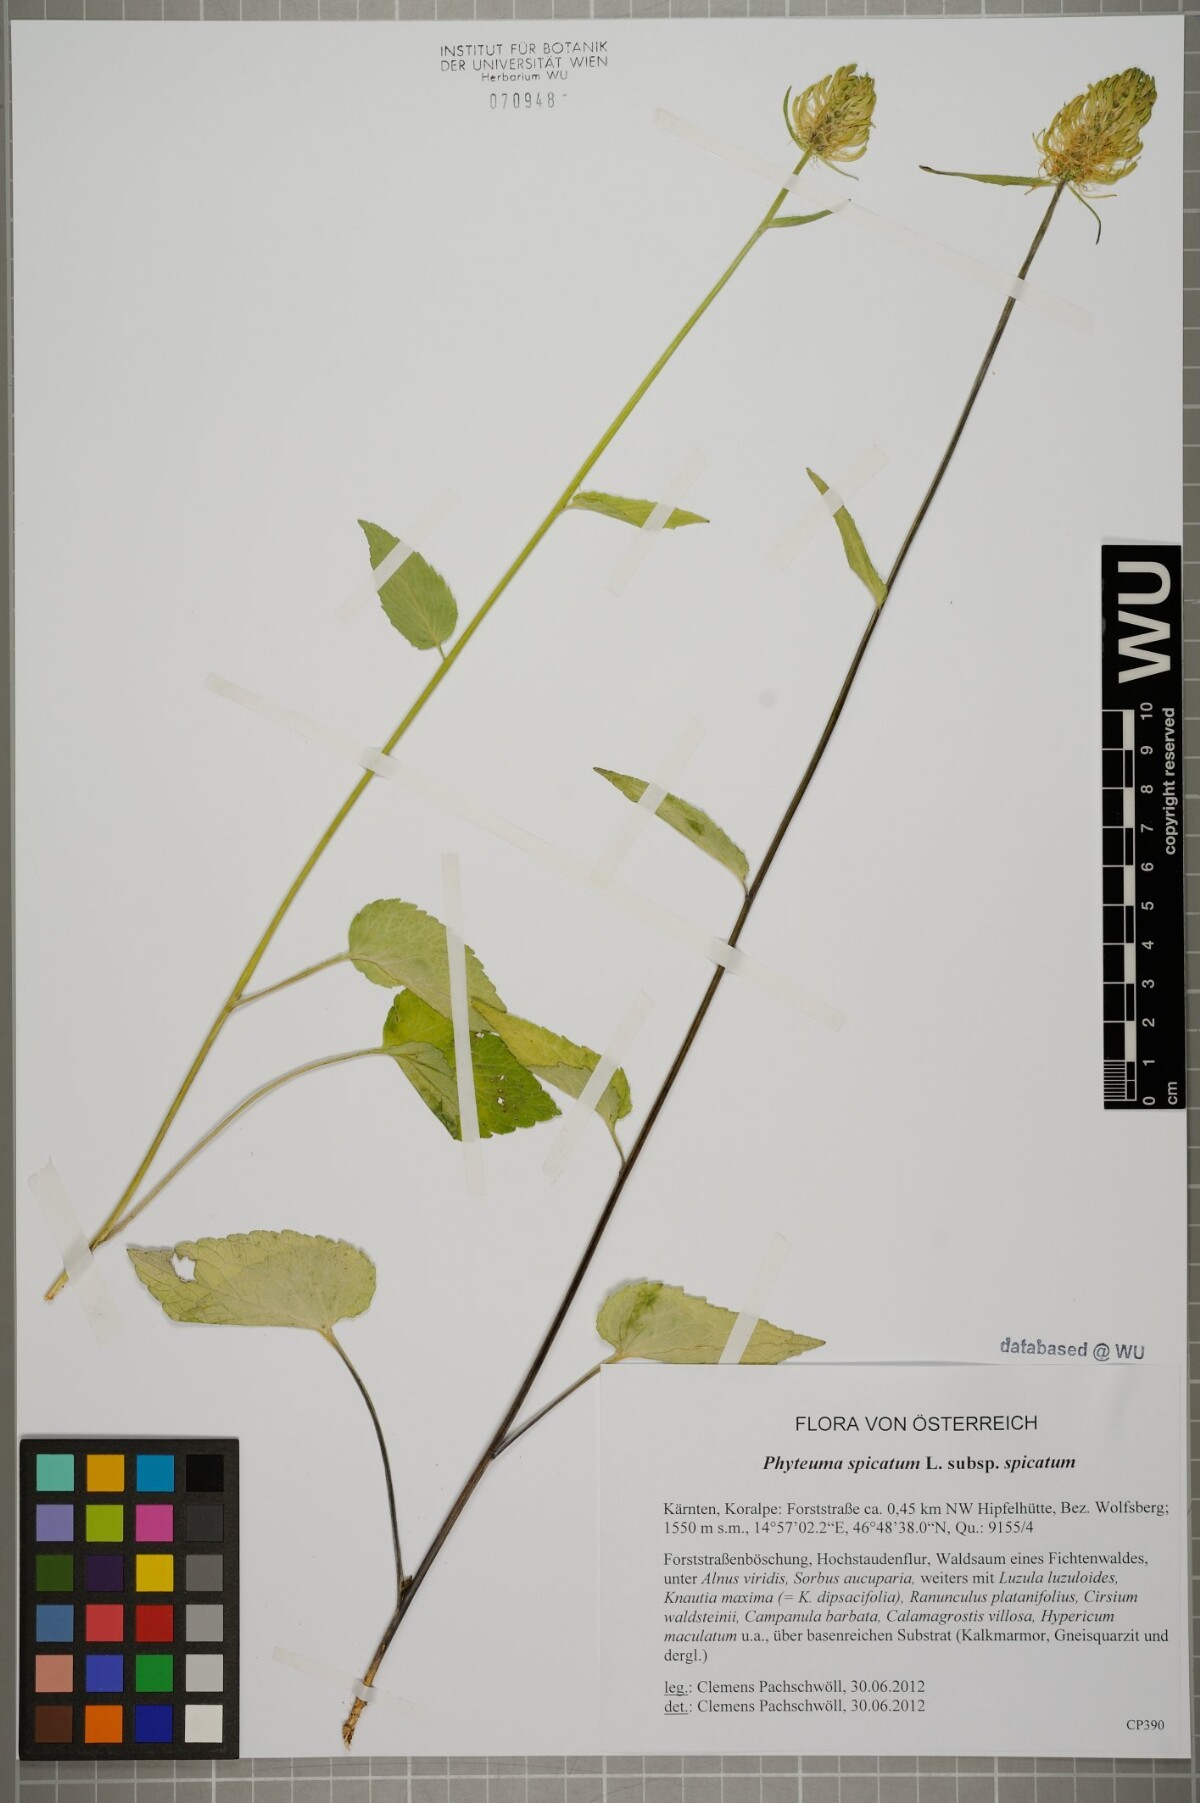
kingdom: Plantae
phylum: Tracheophyta
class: Magnoliopsida
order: Asterales
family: Campanulaceae
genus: Phyteuma
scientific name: Phyteuma spicatum
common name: Spiked rampion
